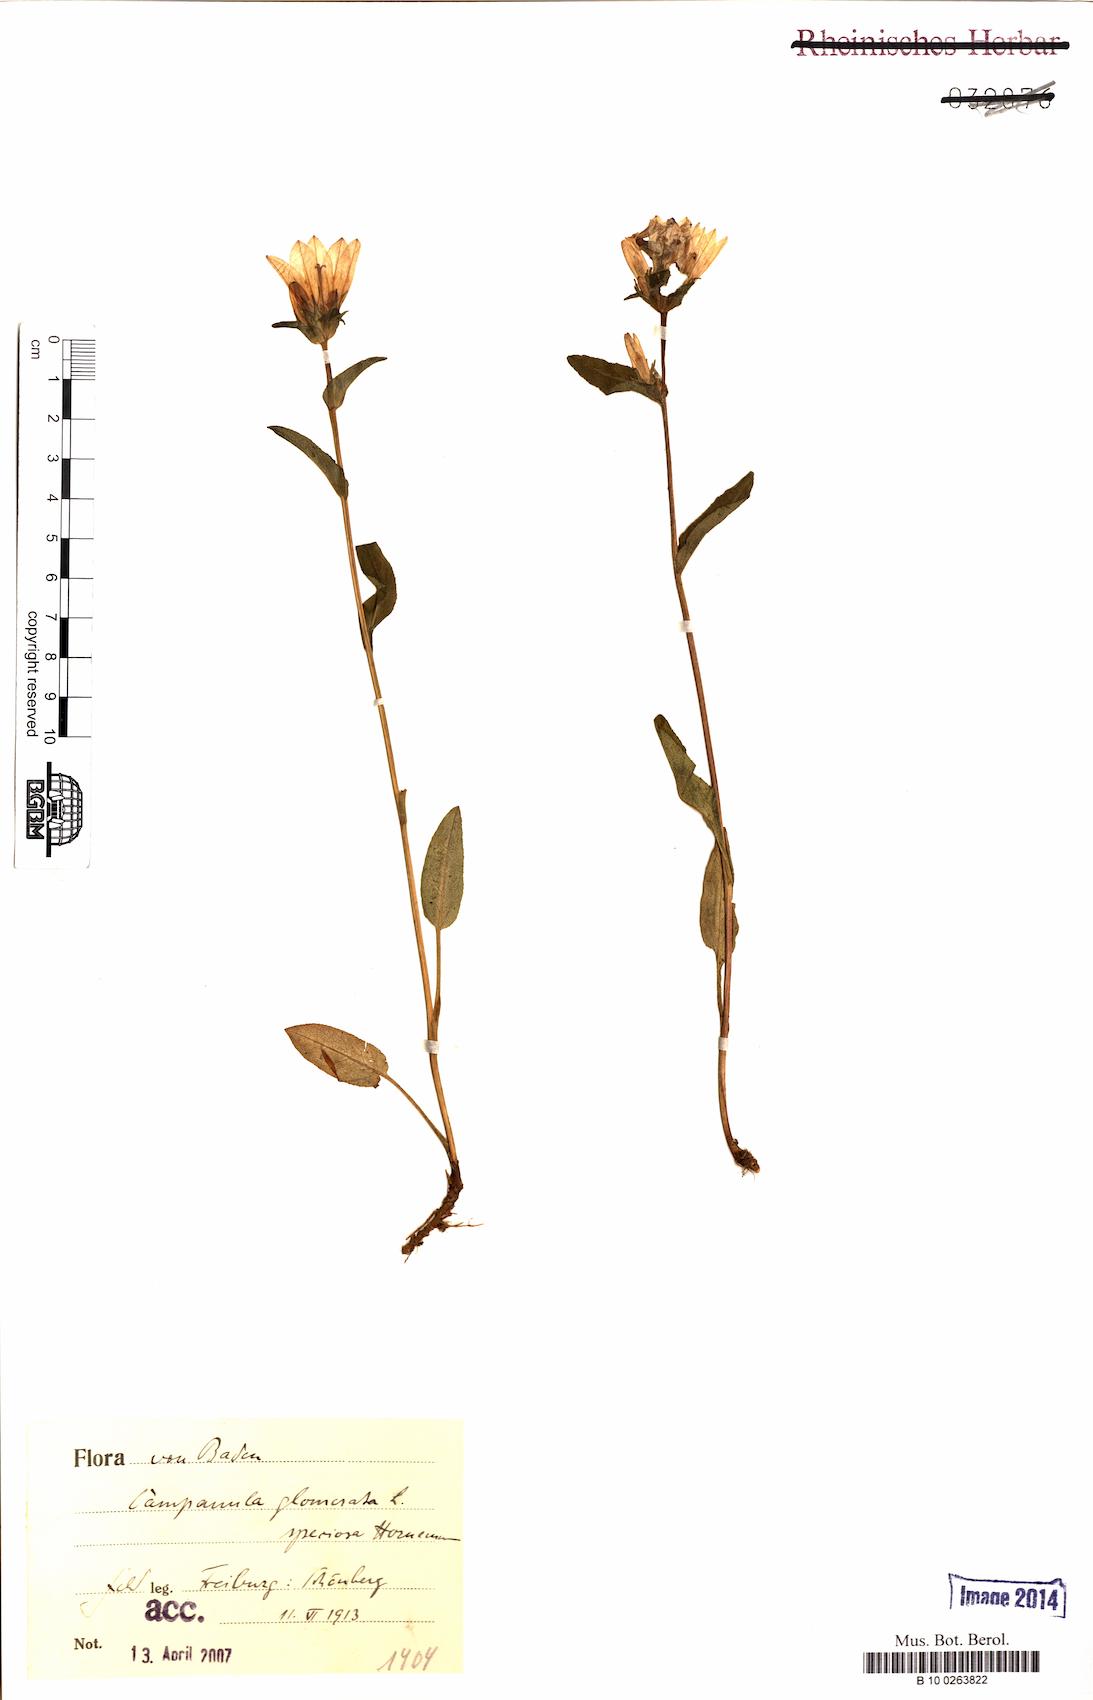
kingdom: Plantae
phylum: Tracheophyta
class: Magnoliopsida
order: Asterales
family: Campanulaceae
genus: Campanula
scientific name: Campanula glomerata
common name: Clustered bellflower
